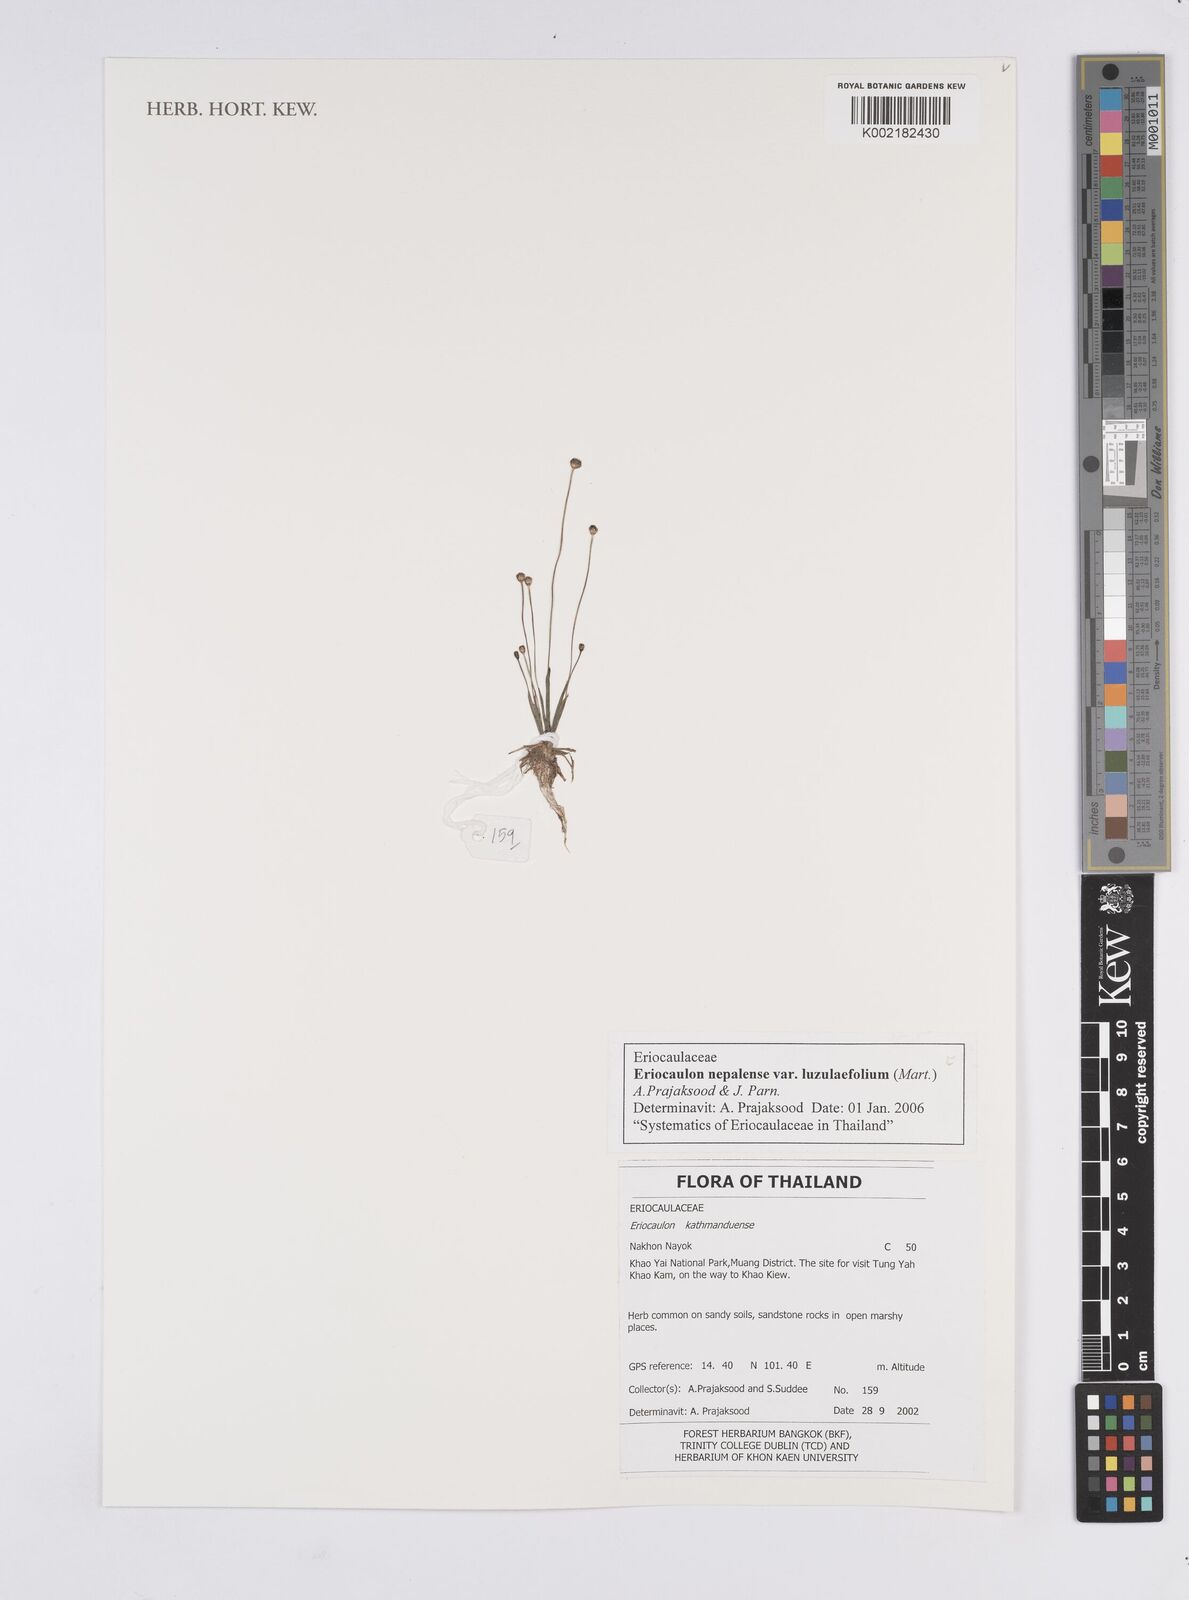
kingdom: Plantae
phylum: Tracheophyta
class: Liliopsida
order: Poales
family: Eriocaulaceae
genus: Eriocaulon
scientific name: Eriocaulon nepalense
